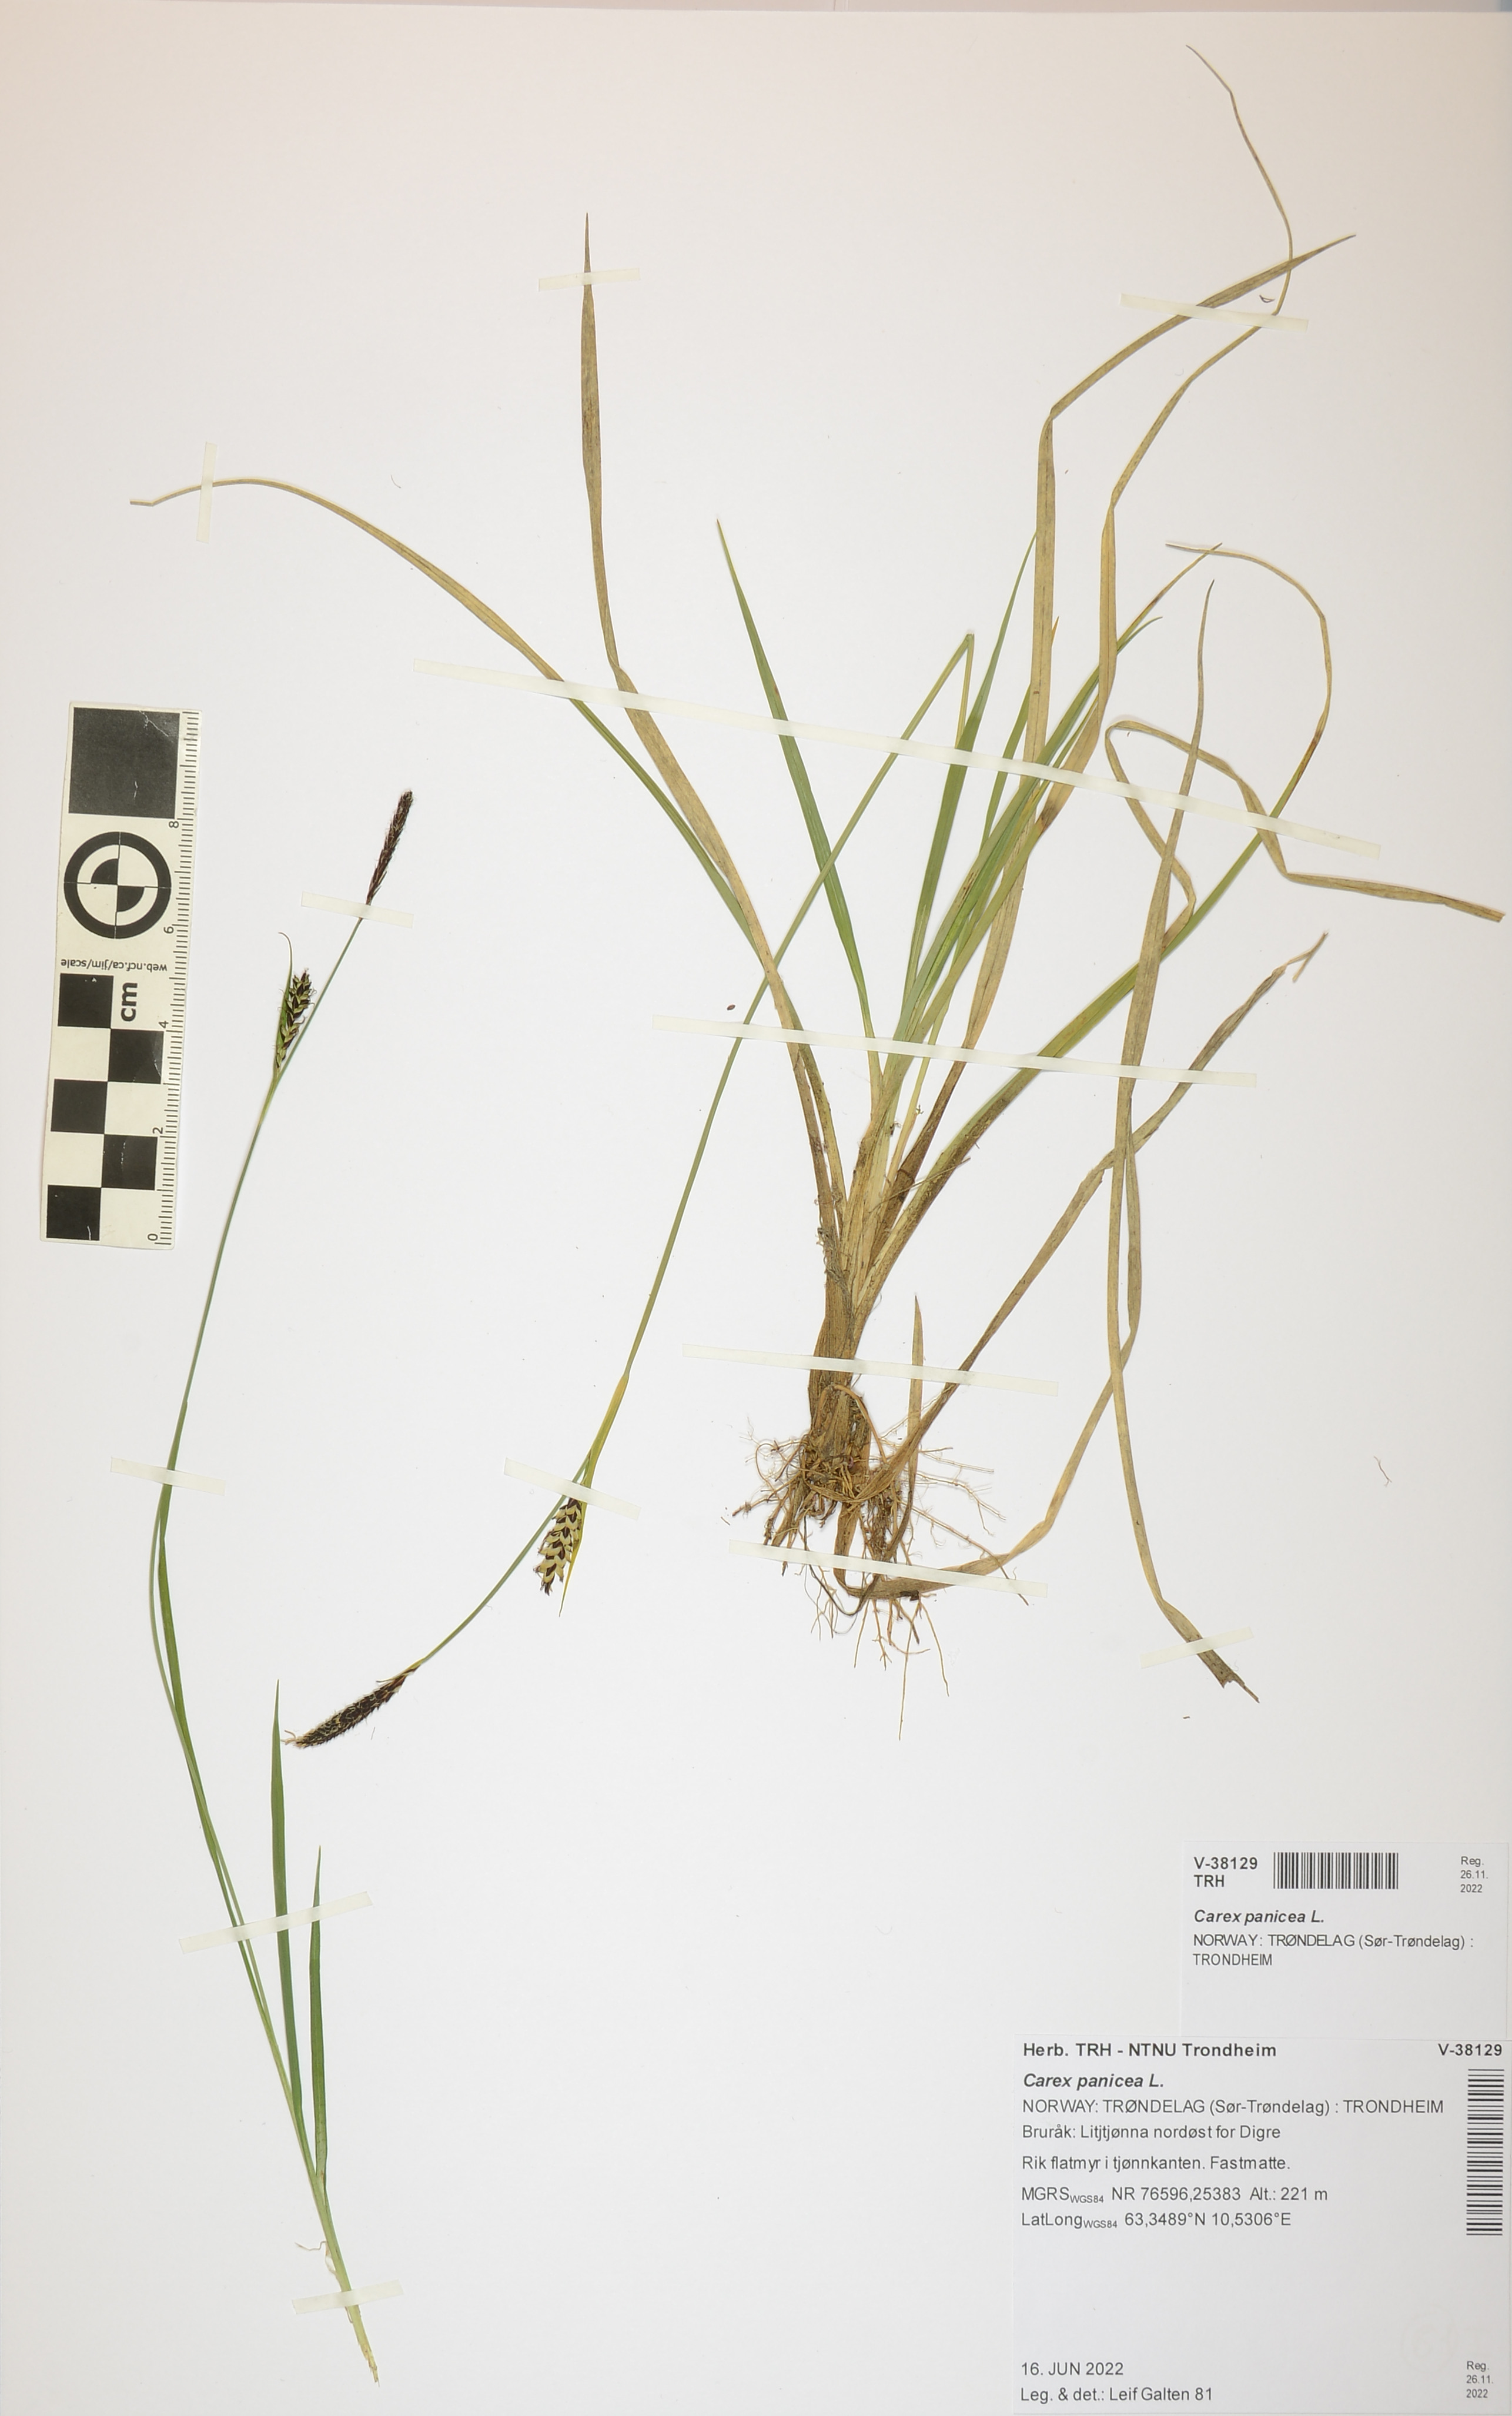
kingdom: Plantae
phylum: Tracheophyta
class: Liliopsida
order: Poales
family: Cyperaceae
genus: Carex
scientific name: Carex panicea
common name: Carnation sedge
